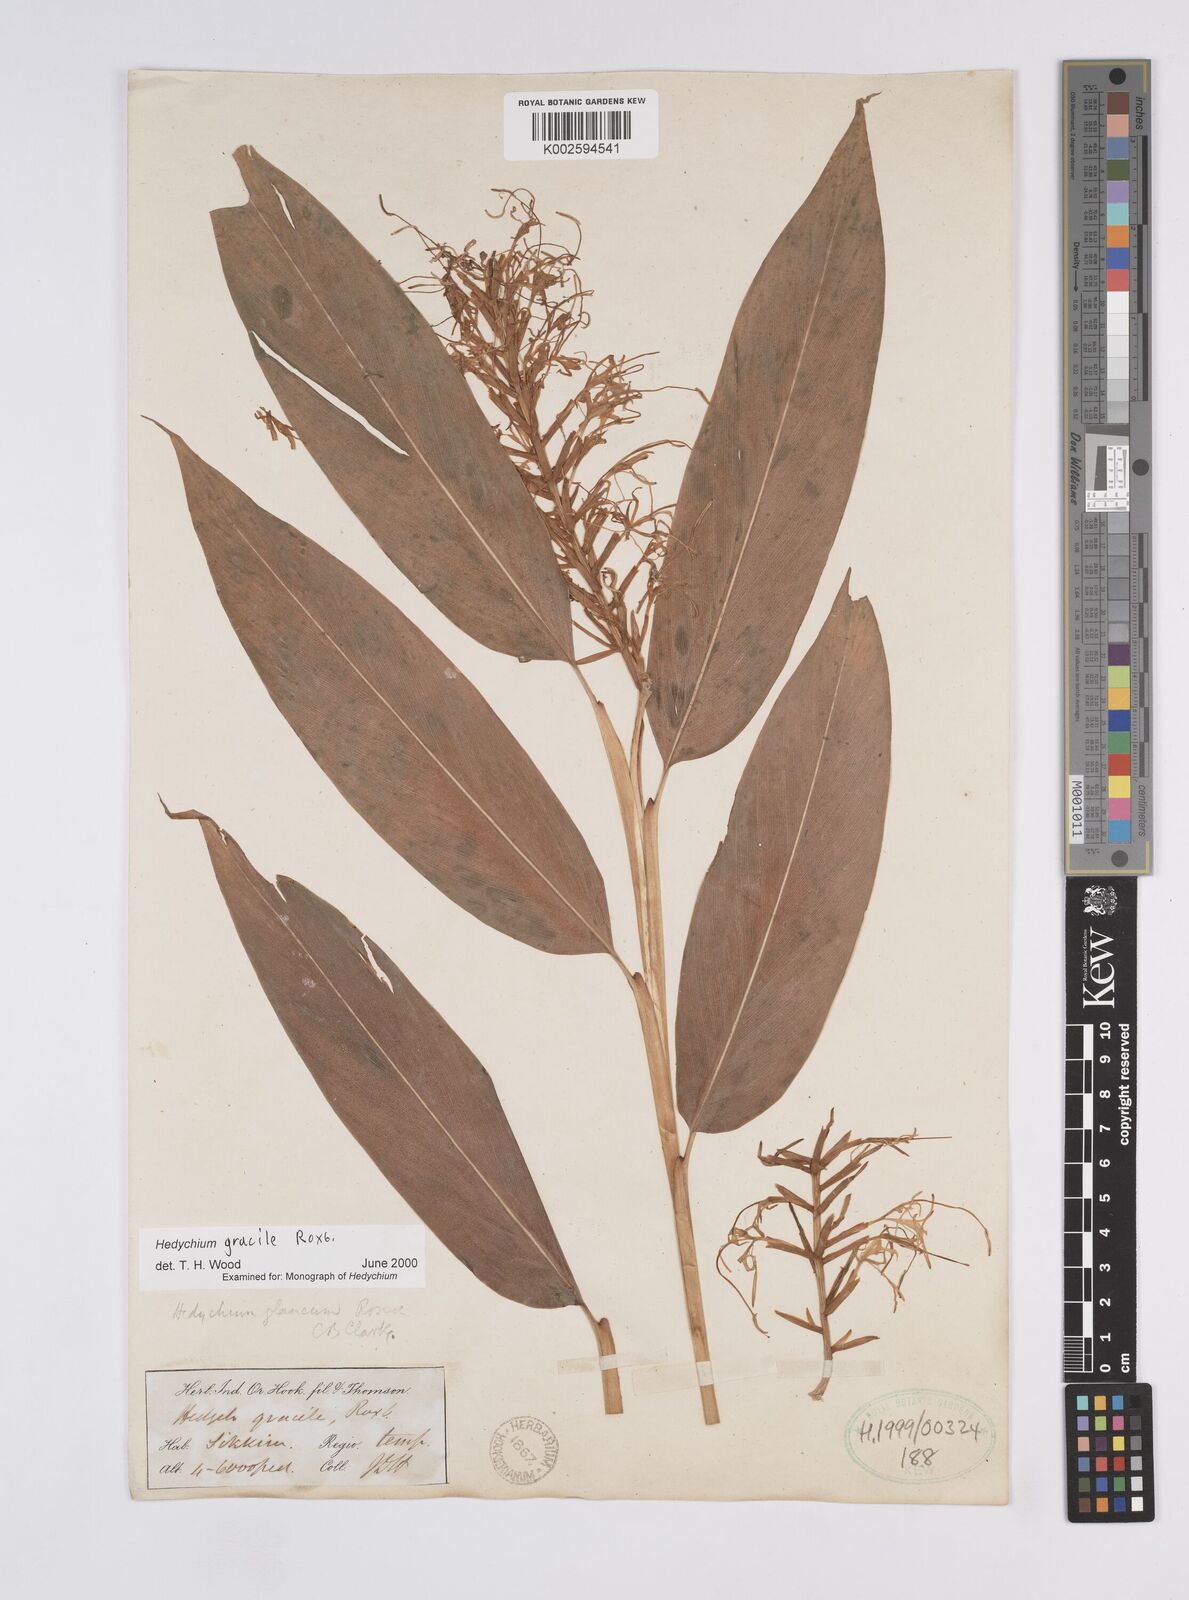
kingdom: Plantae
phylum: Tracheophyta
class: Liliopsida
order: Zingiberales
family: Zingiberaceae
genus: Hedychium
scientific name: Hedychium glaucum
